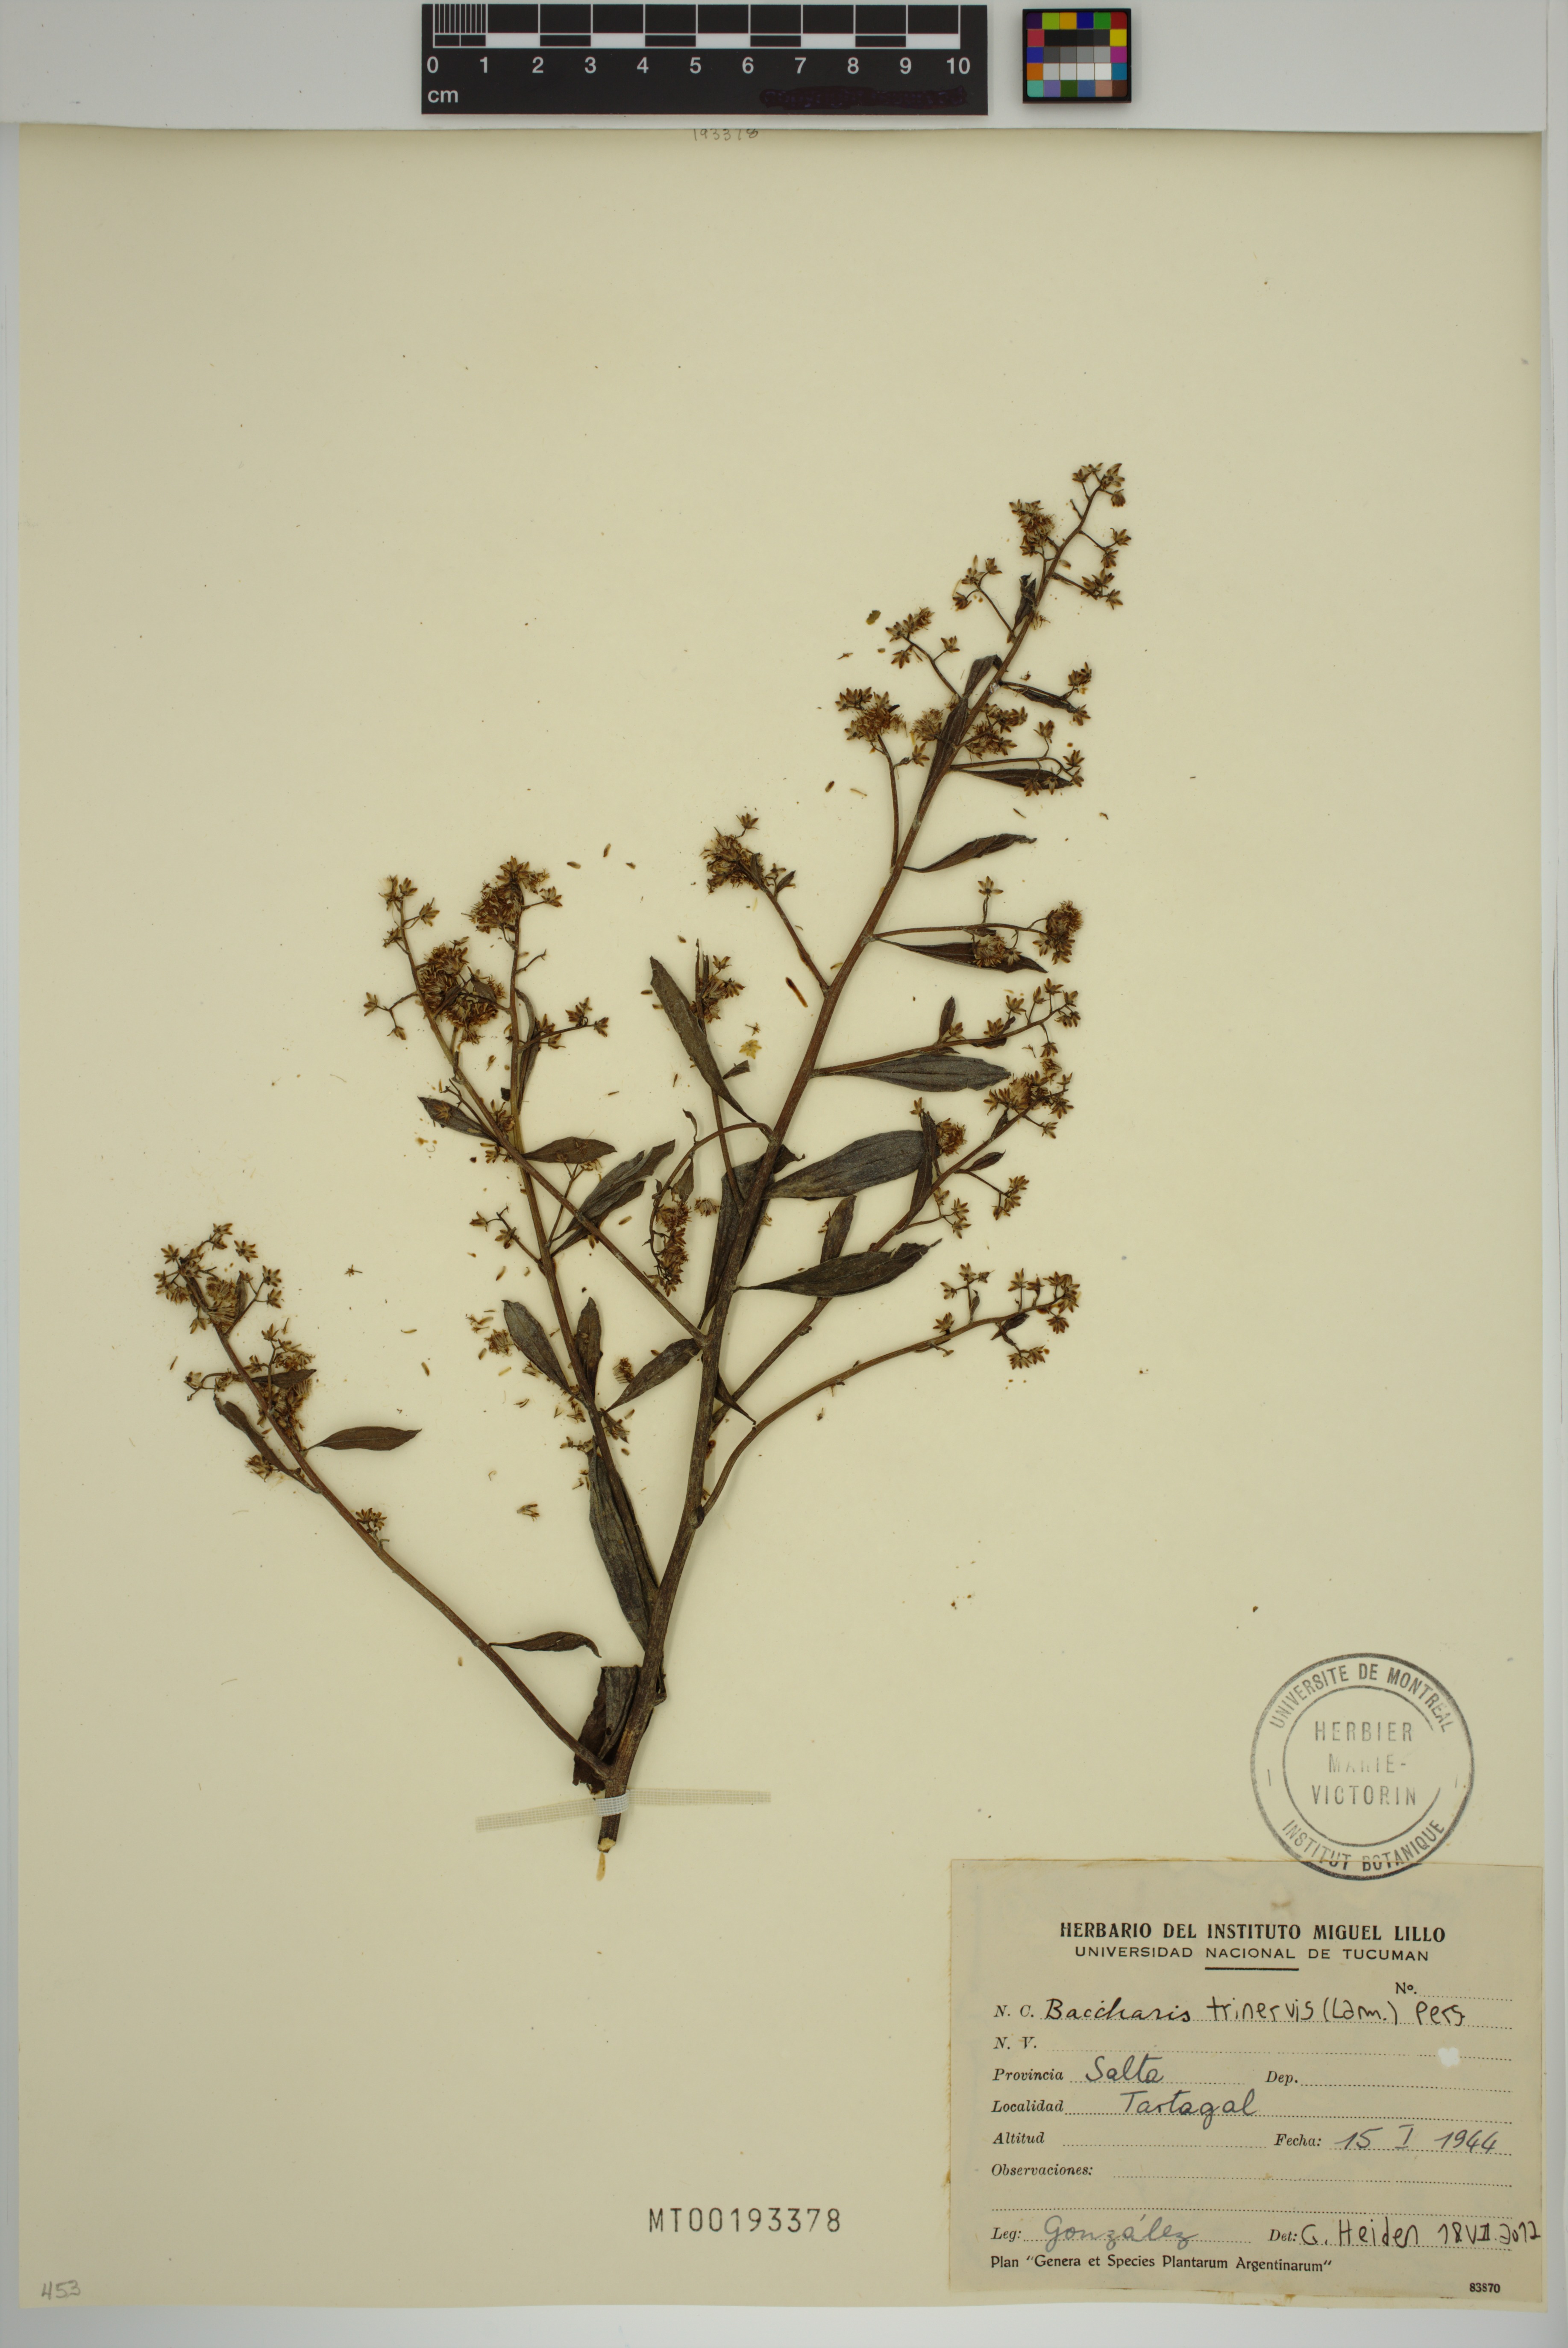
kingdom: Plantae
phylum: Tracheophyta
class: Magnoliopsida
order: Asterales
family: Asteraceae
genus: Baccharis
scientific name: Baccharis trinervis
